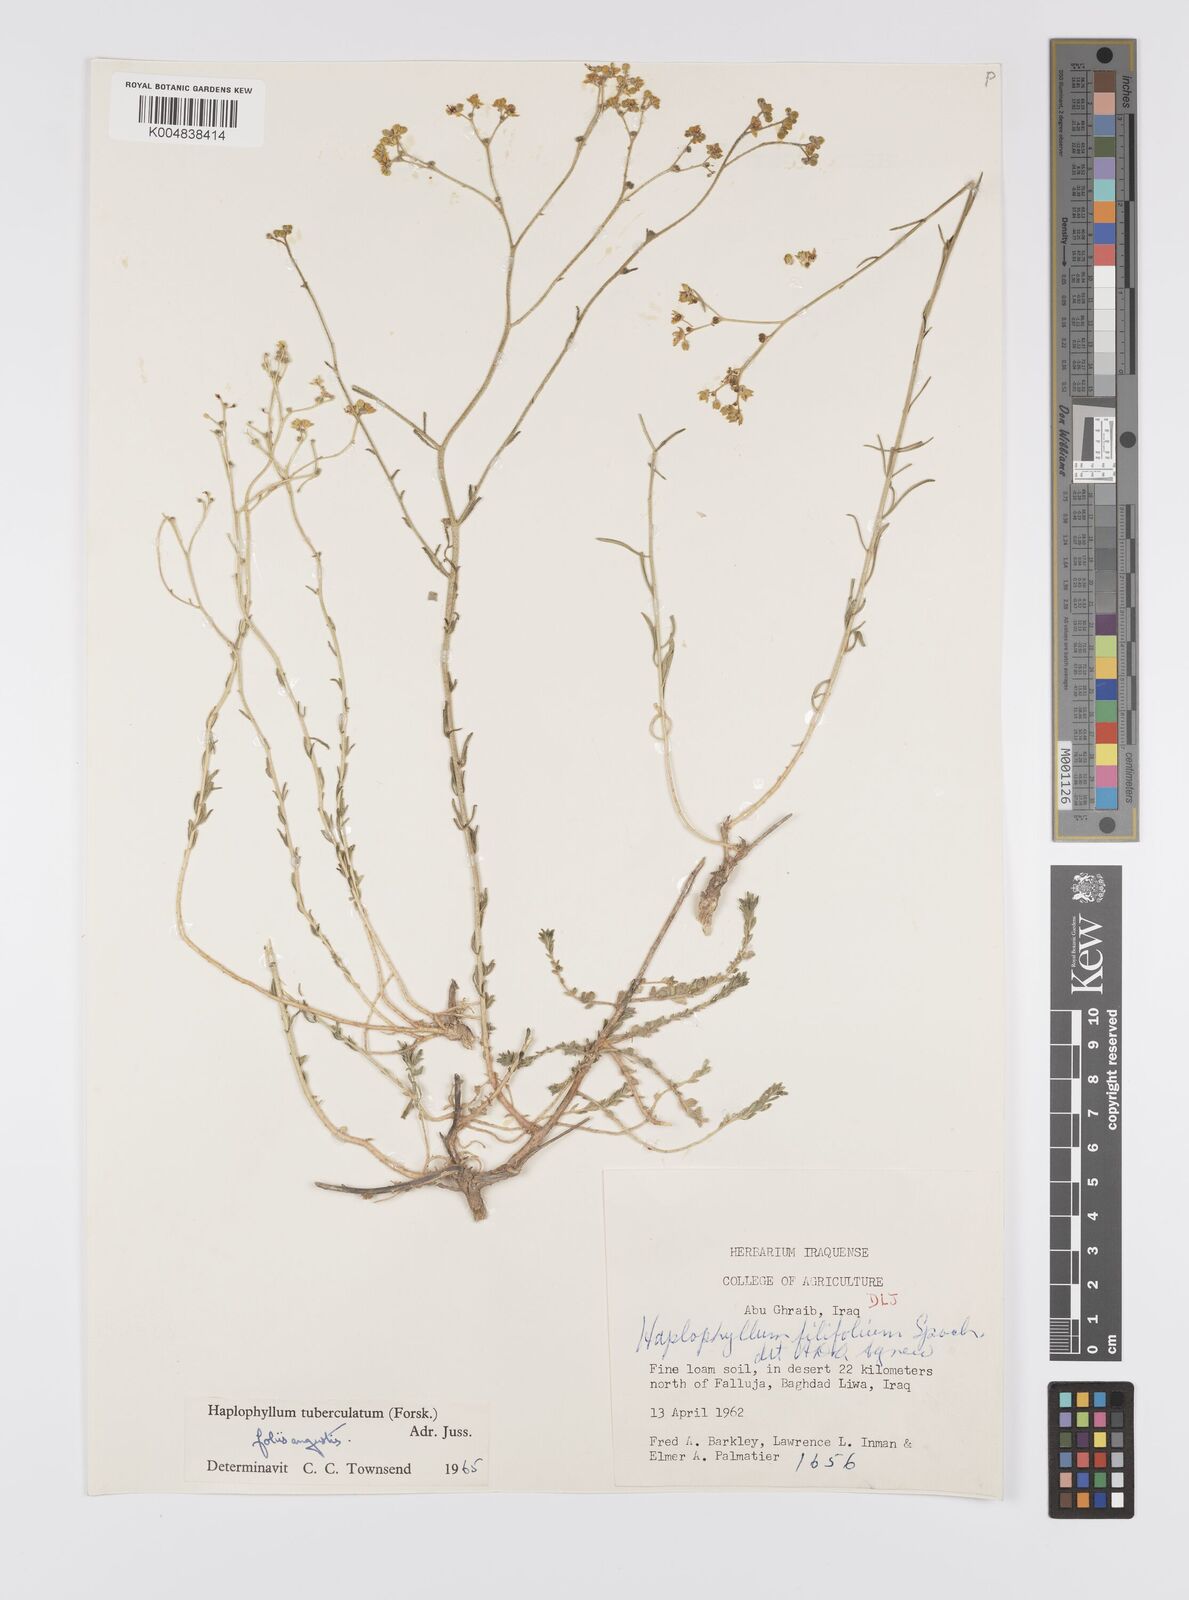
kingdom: Plantae
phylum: Tracheophyta
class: Magnoliopsida
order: Sapindales
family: Rutaceae
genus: Haplophyllum
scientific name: Haplophyllum tuberculatum
